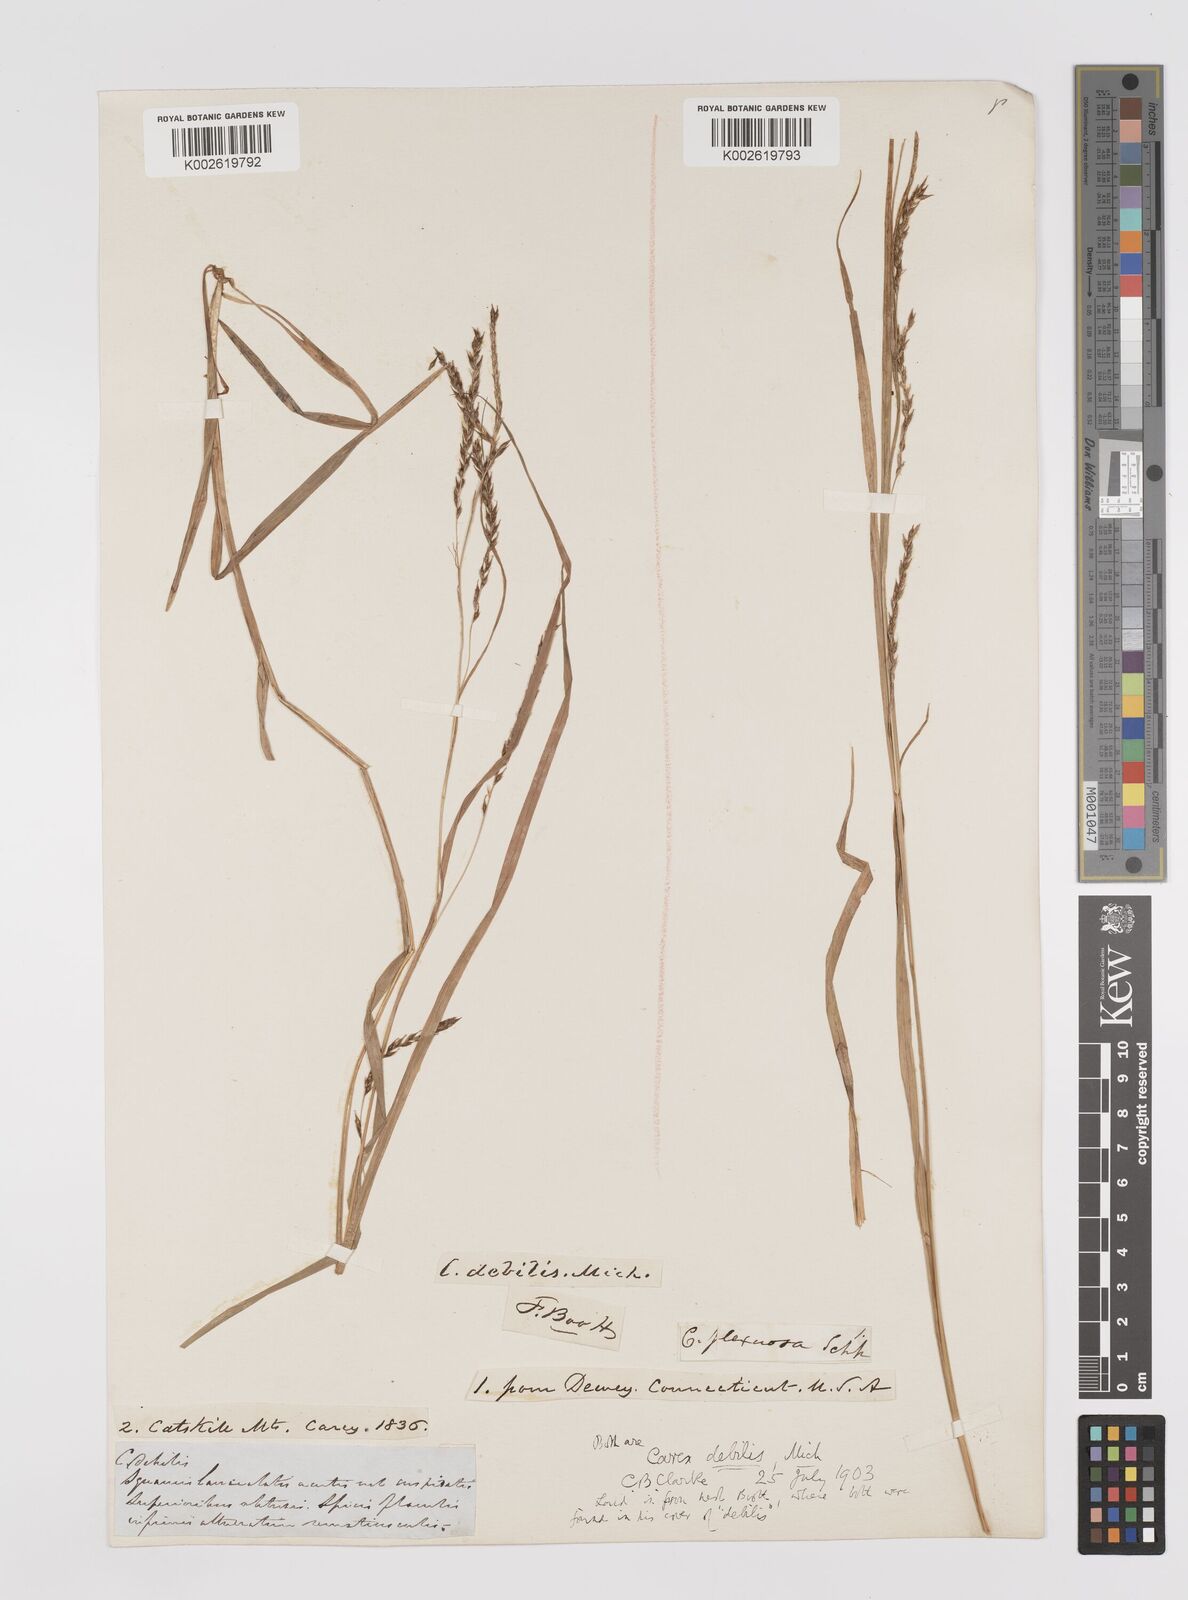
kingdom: Plantae
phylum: Tracheophyta
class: Liliopsida
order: Poales
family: Cyperaceae
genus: Carex
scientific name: Carex debilis
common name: White-edge sedge
